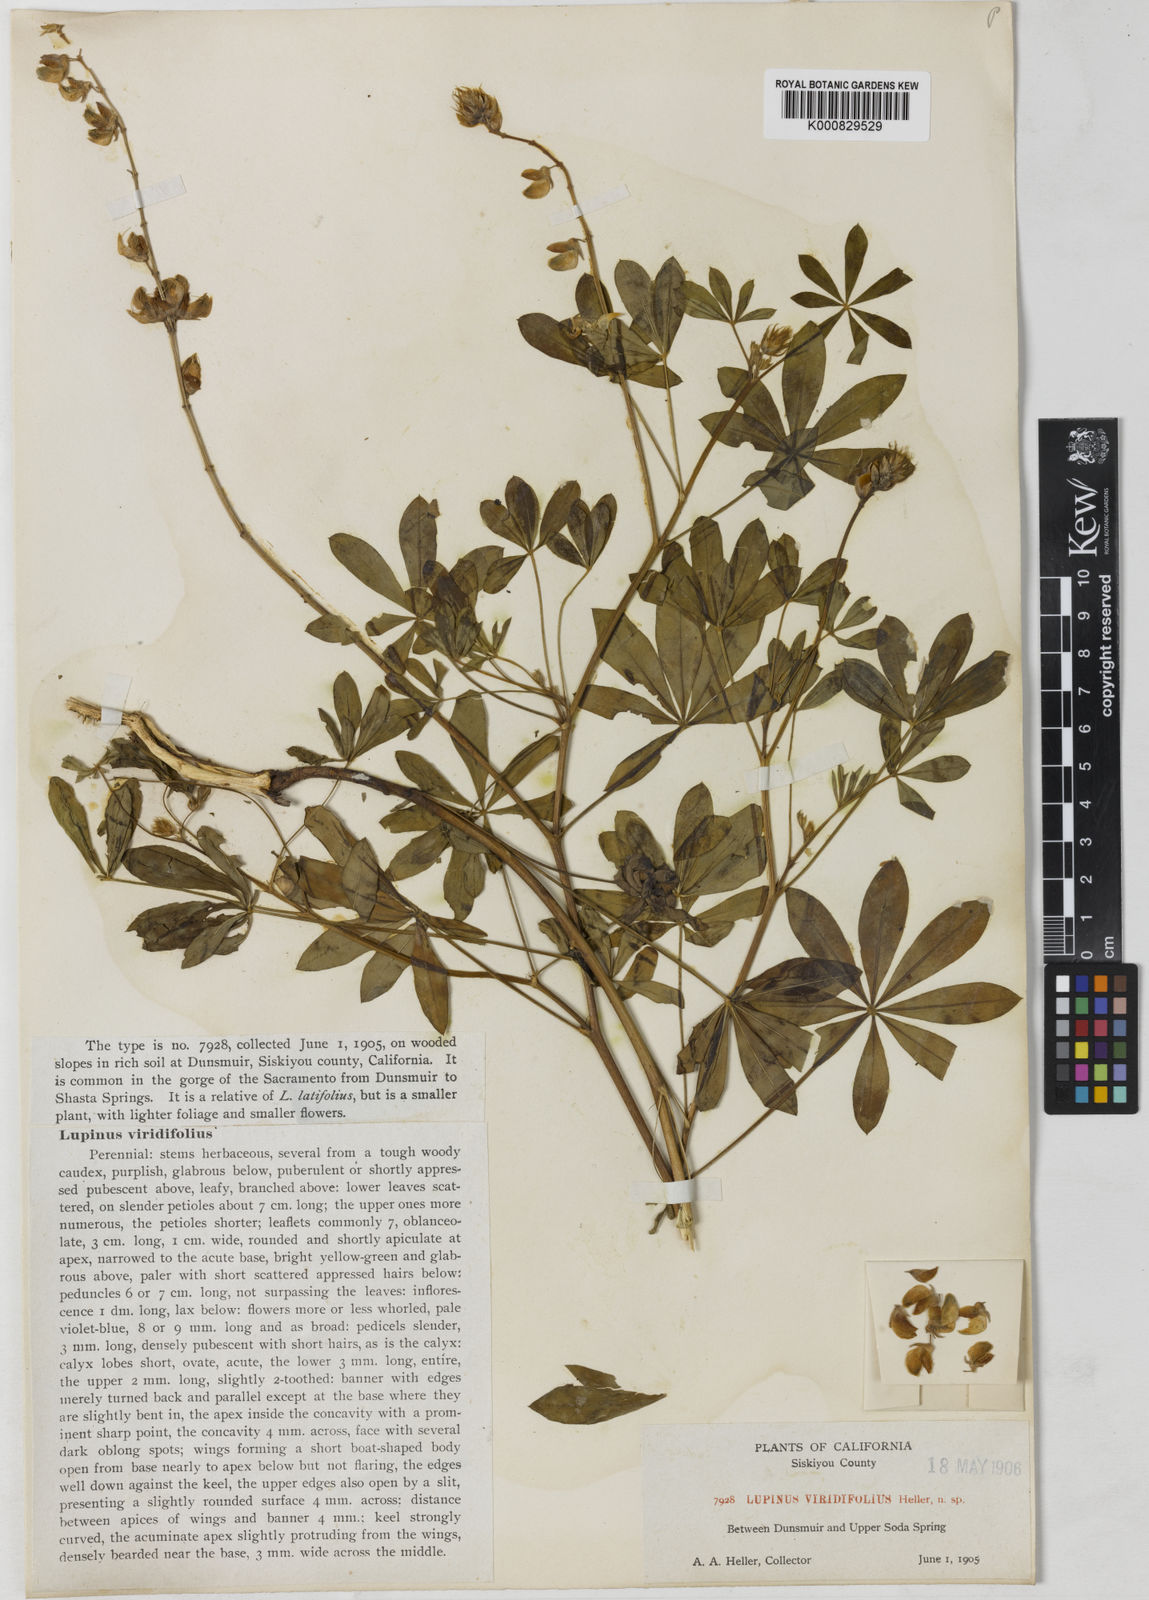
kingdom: Plantae
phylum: Tracheophyta
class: Magnoliopsida
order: Fabales
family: Fabaceae
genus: Lupinus
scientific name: Lupinus latifolius
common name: Broad-leaved lupine
